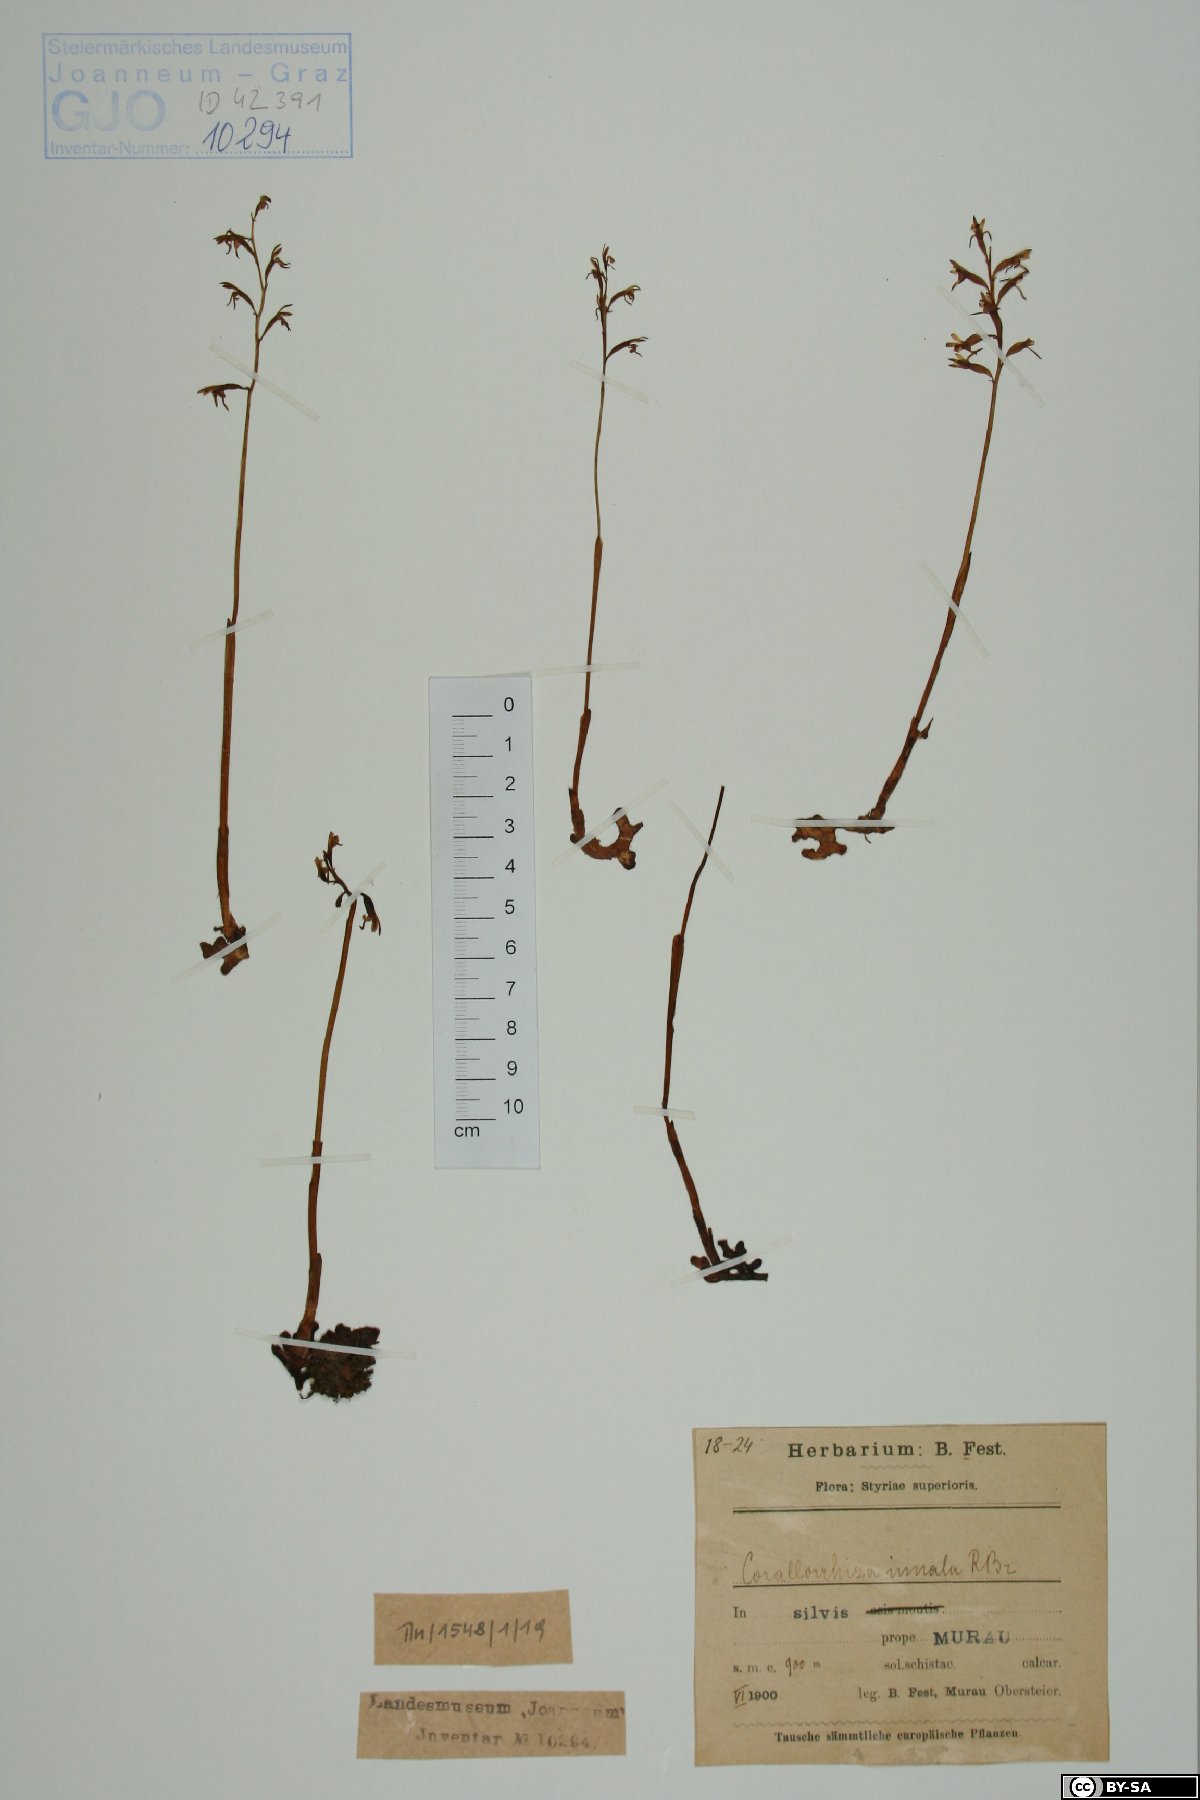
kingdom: Plantae
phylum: Tracheophyta
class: Liliopsida
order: Asparagales
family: Orchidaceae
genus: Corallorhiza
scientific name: Corallorhiza trifida
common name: Yellow coralroot
